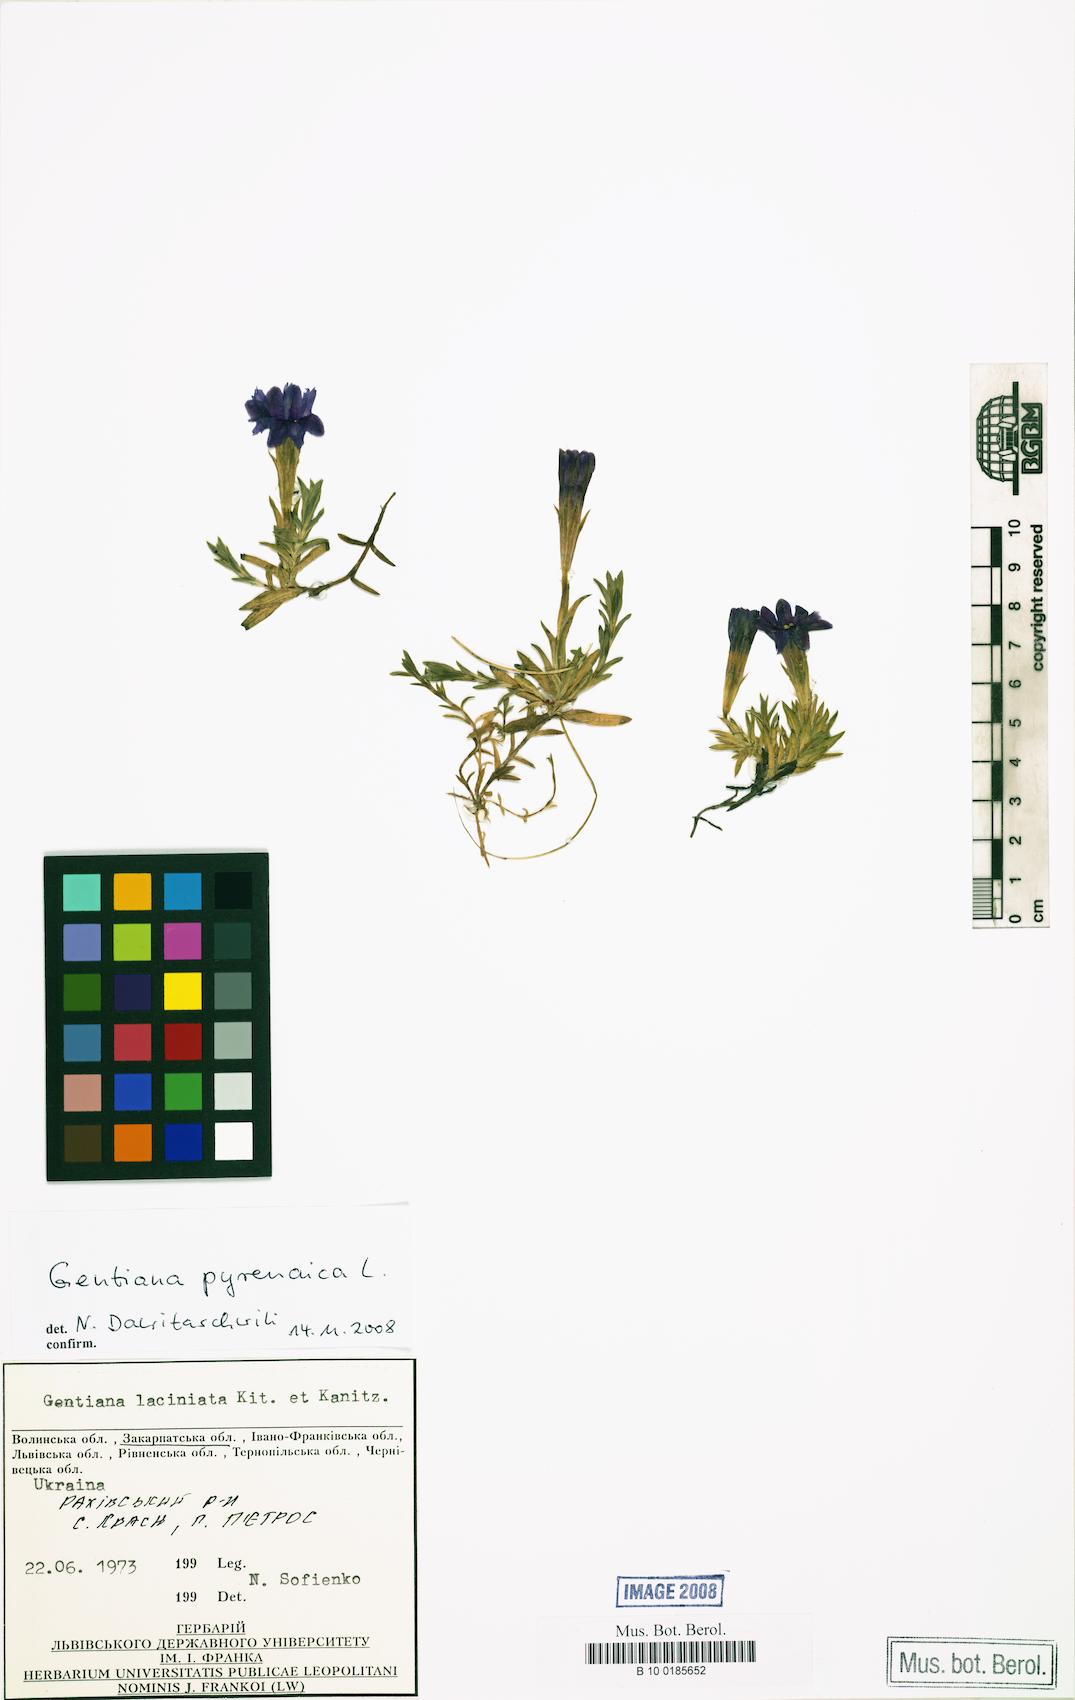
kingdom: Plantae
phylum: Tracheophyta
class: Magnoliopsida
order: Gentianales
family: Gentianaceae
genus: Gentiana
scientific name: Gentiana pyrenaica
